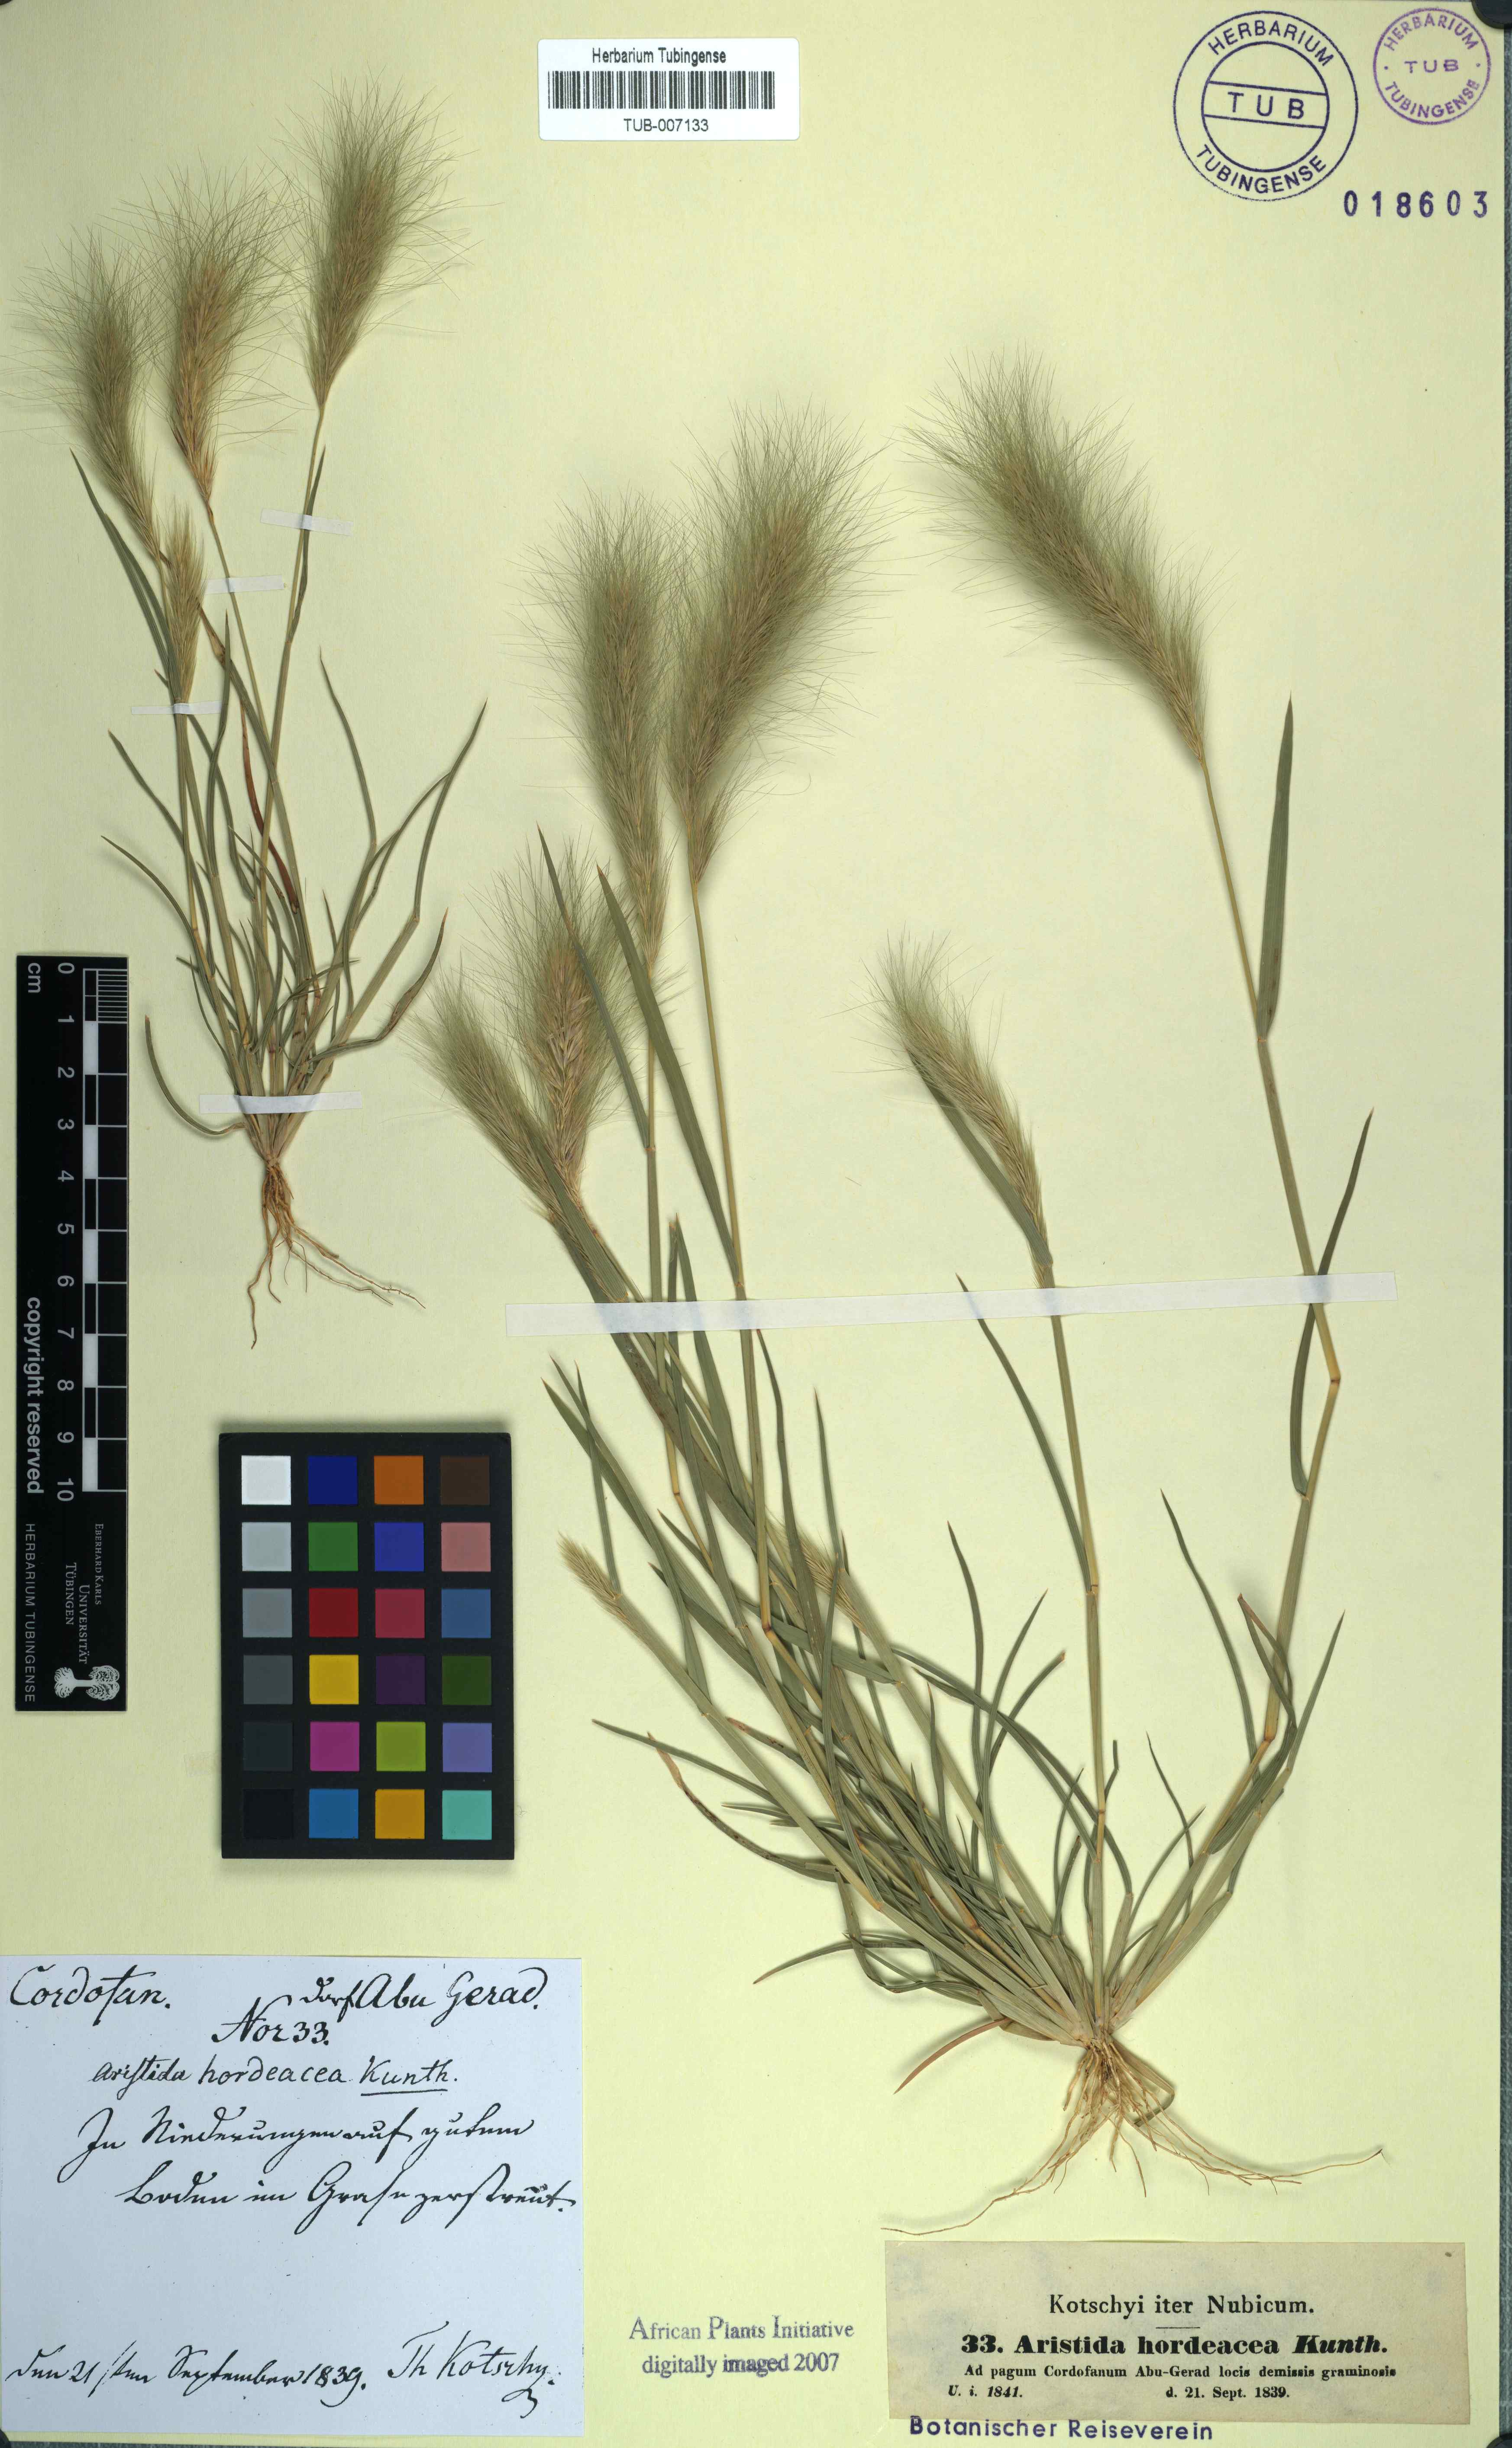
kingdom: Plantae
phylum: Tracheophyta
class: Liliopsida
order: Poales
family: Poaceae
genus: Aristida
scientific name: Aristida hordeacea
